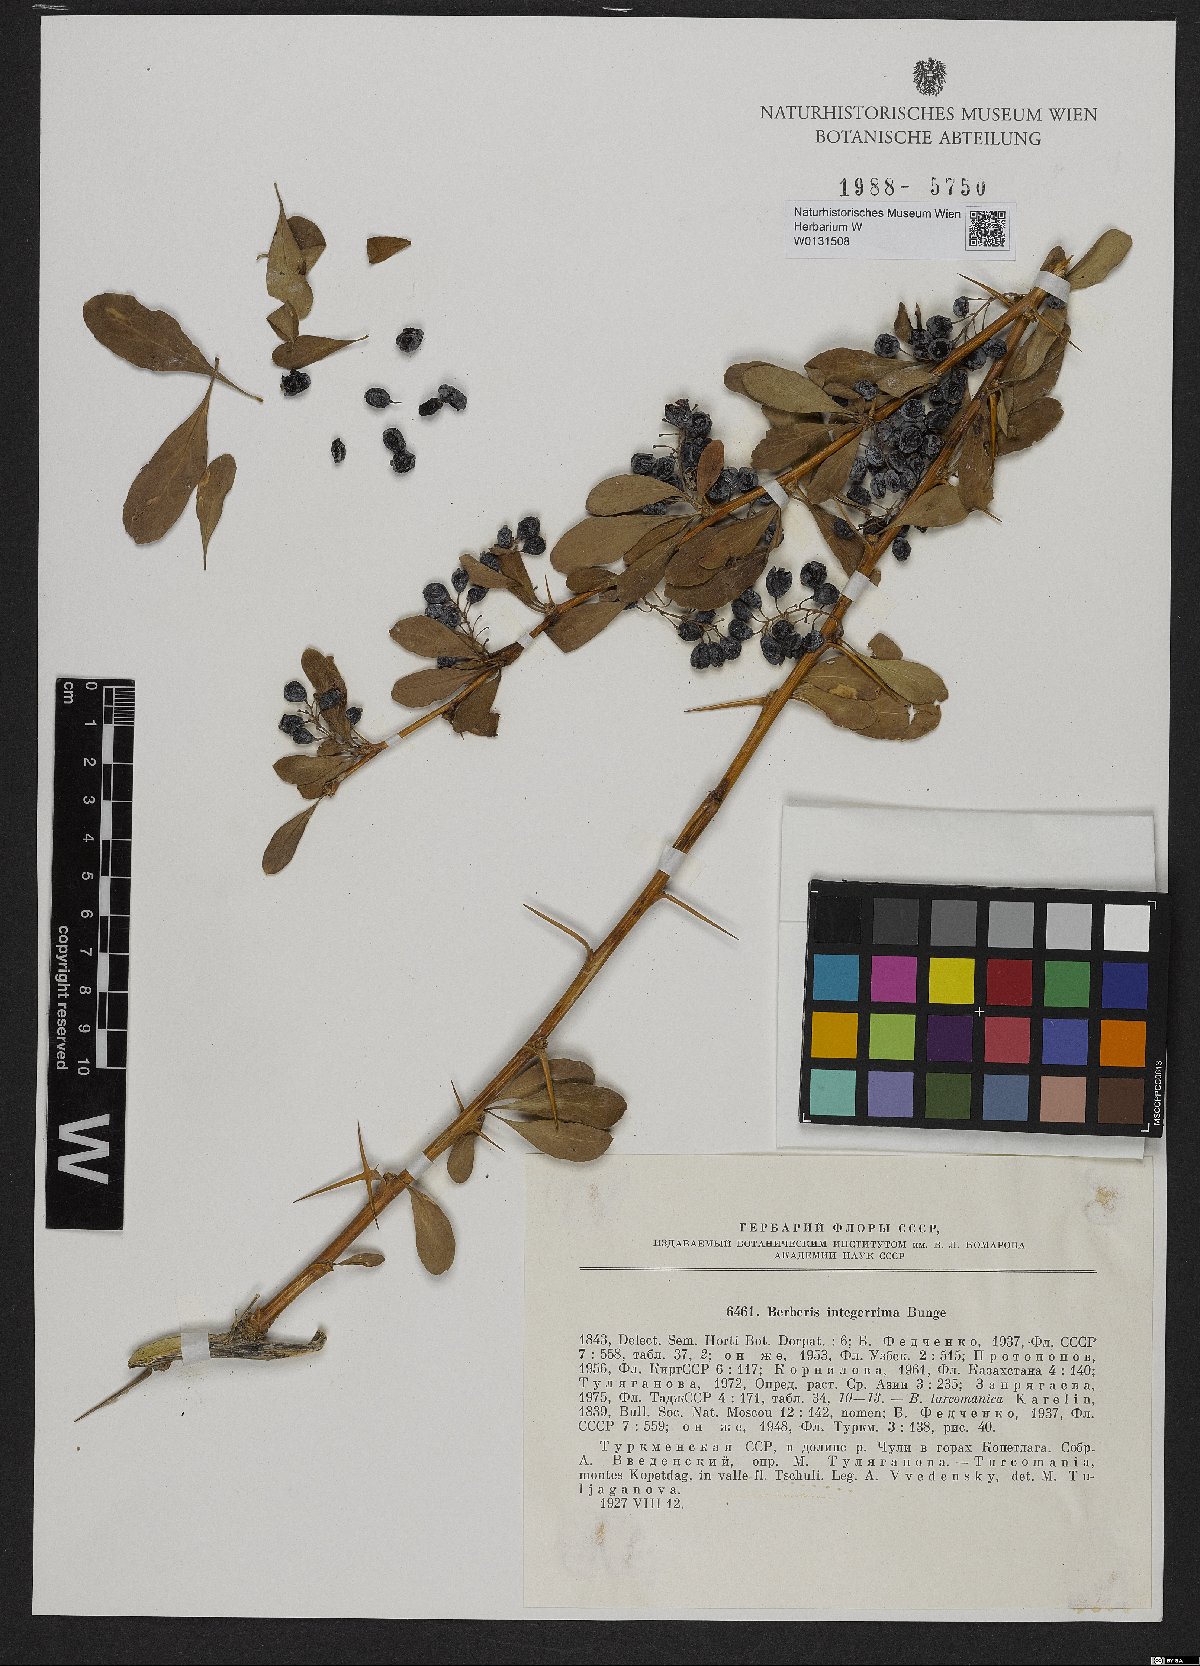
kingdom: Plantae
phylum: Tracheophyta
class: Magnoliopsida
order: Ranunculales
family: Berberidaceae
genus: Berberis
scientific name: Berberis integerrima
